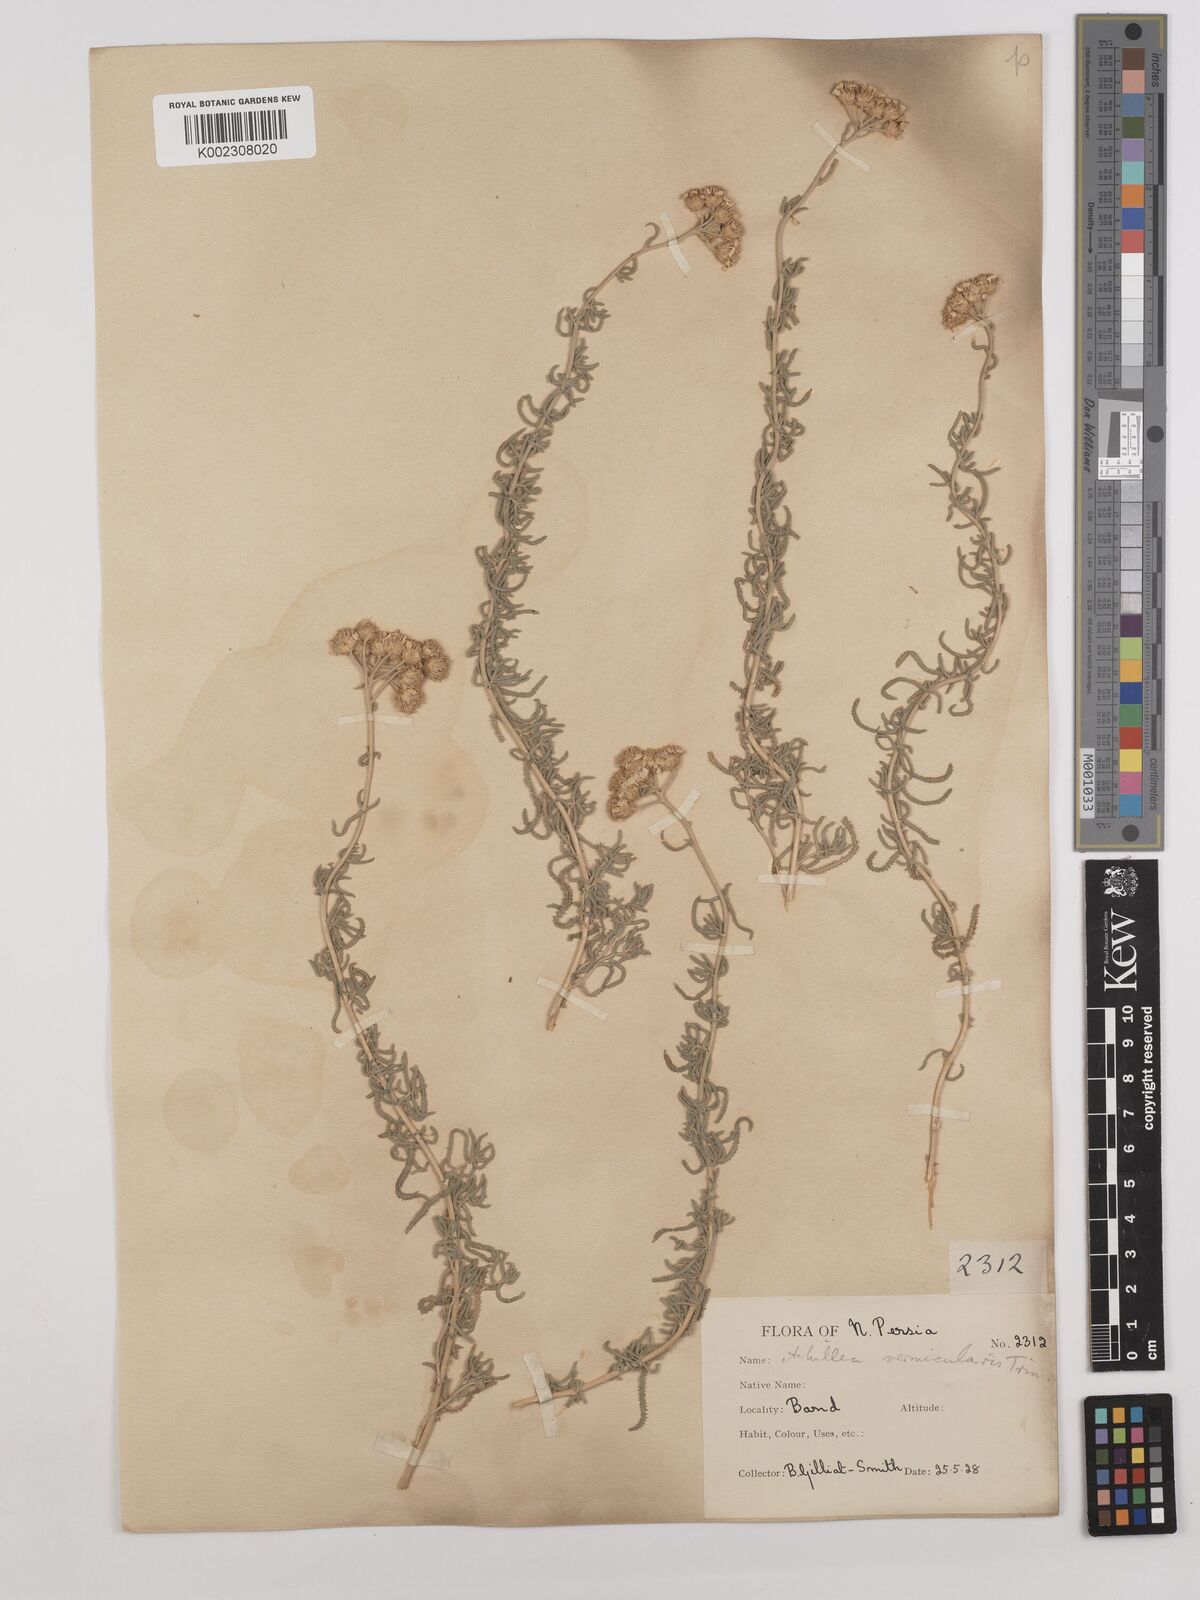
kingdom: Plantae
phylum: Tracheophyta
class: Magnoliopsida
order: Asterales
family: Asteraceae
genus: Achillea
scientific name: Achillea vermicularis
